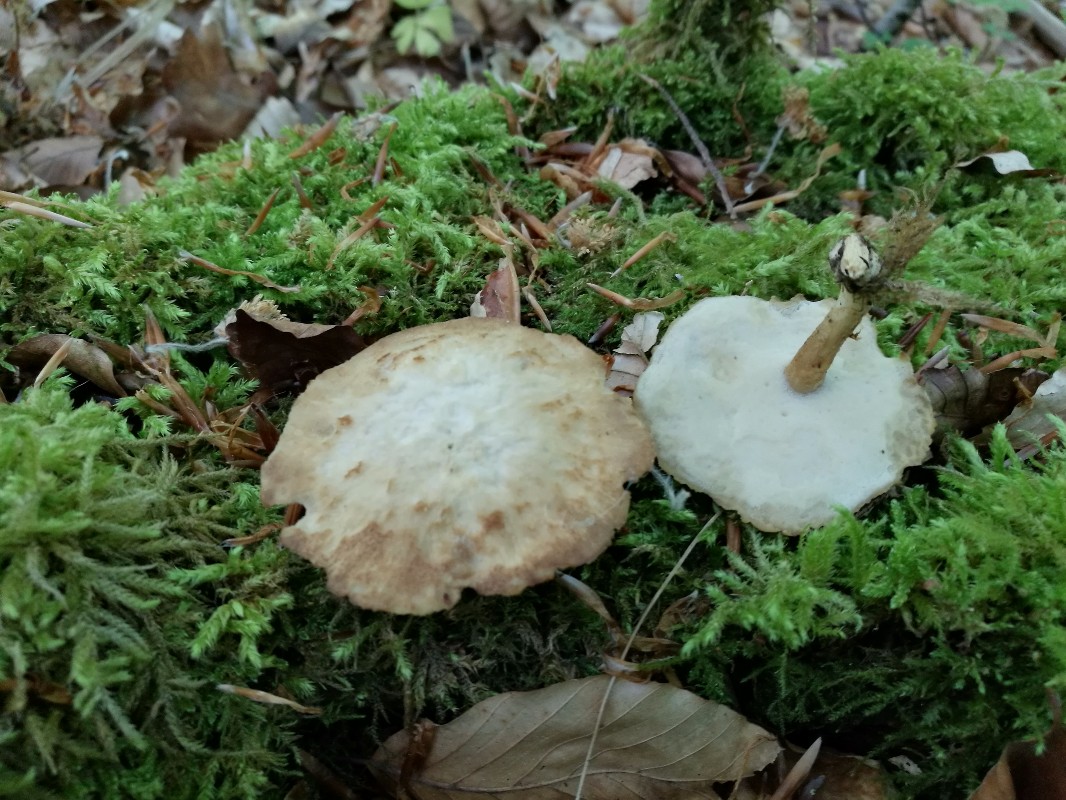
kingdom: Fungi
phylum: Basidiomycota
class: Agaricomycetes
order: Polyporales
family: Polyporaceae
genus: Lentinus
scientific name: Lentinus substrictus
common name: forårs-stilkporesvamp
